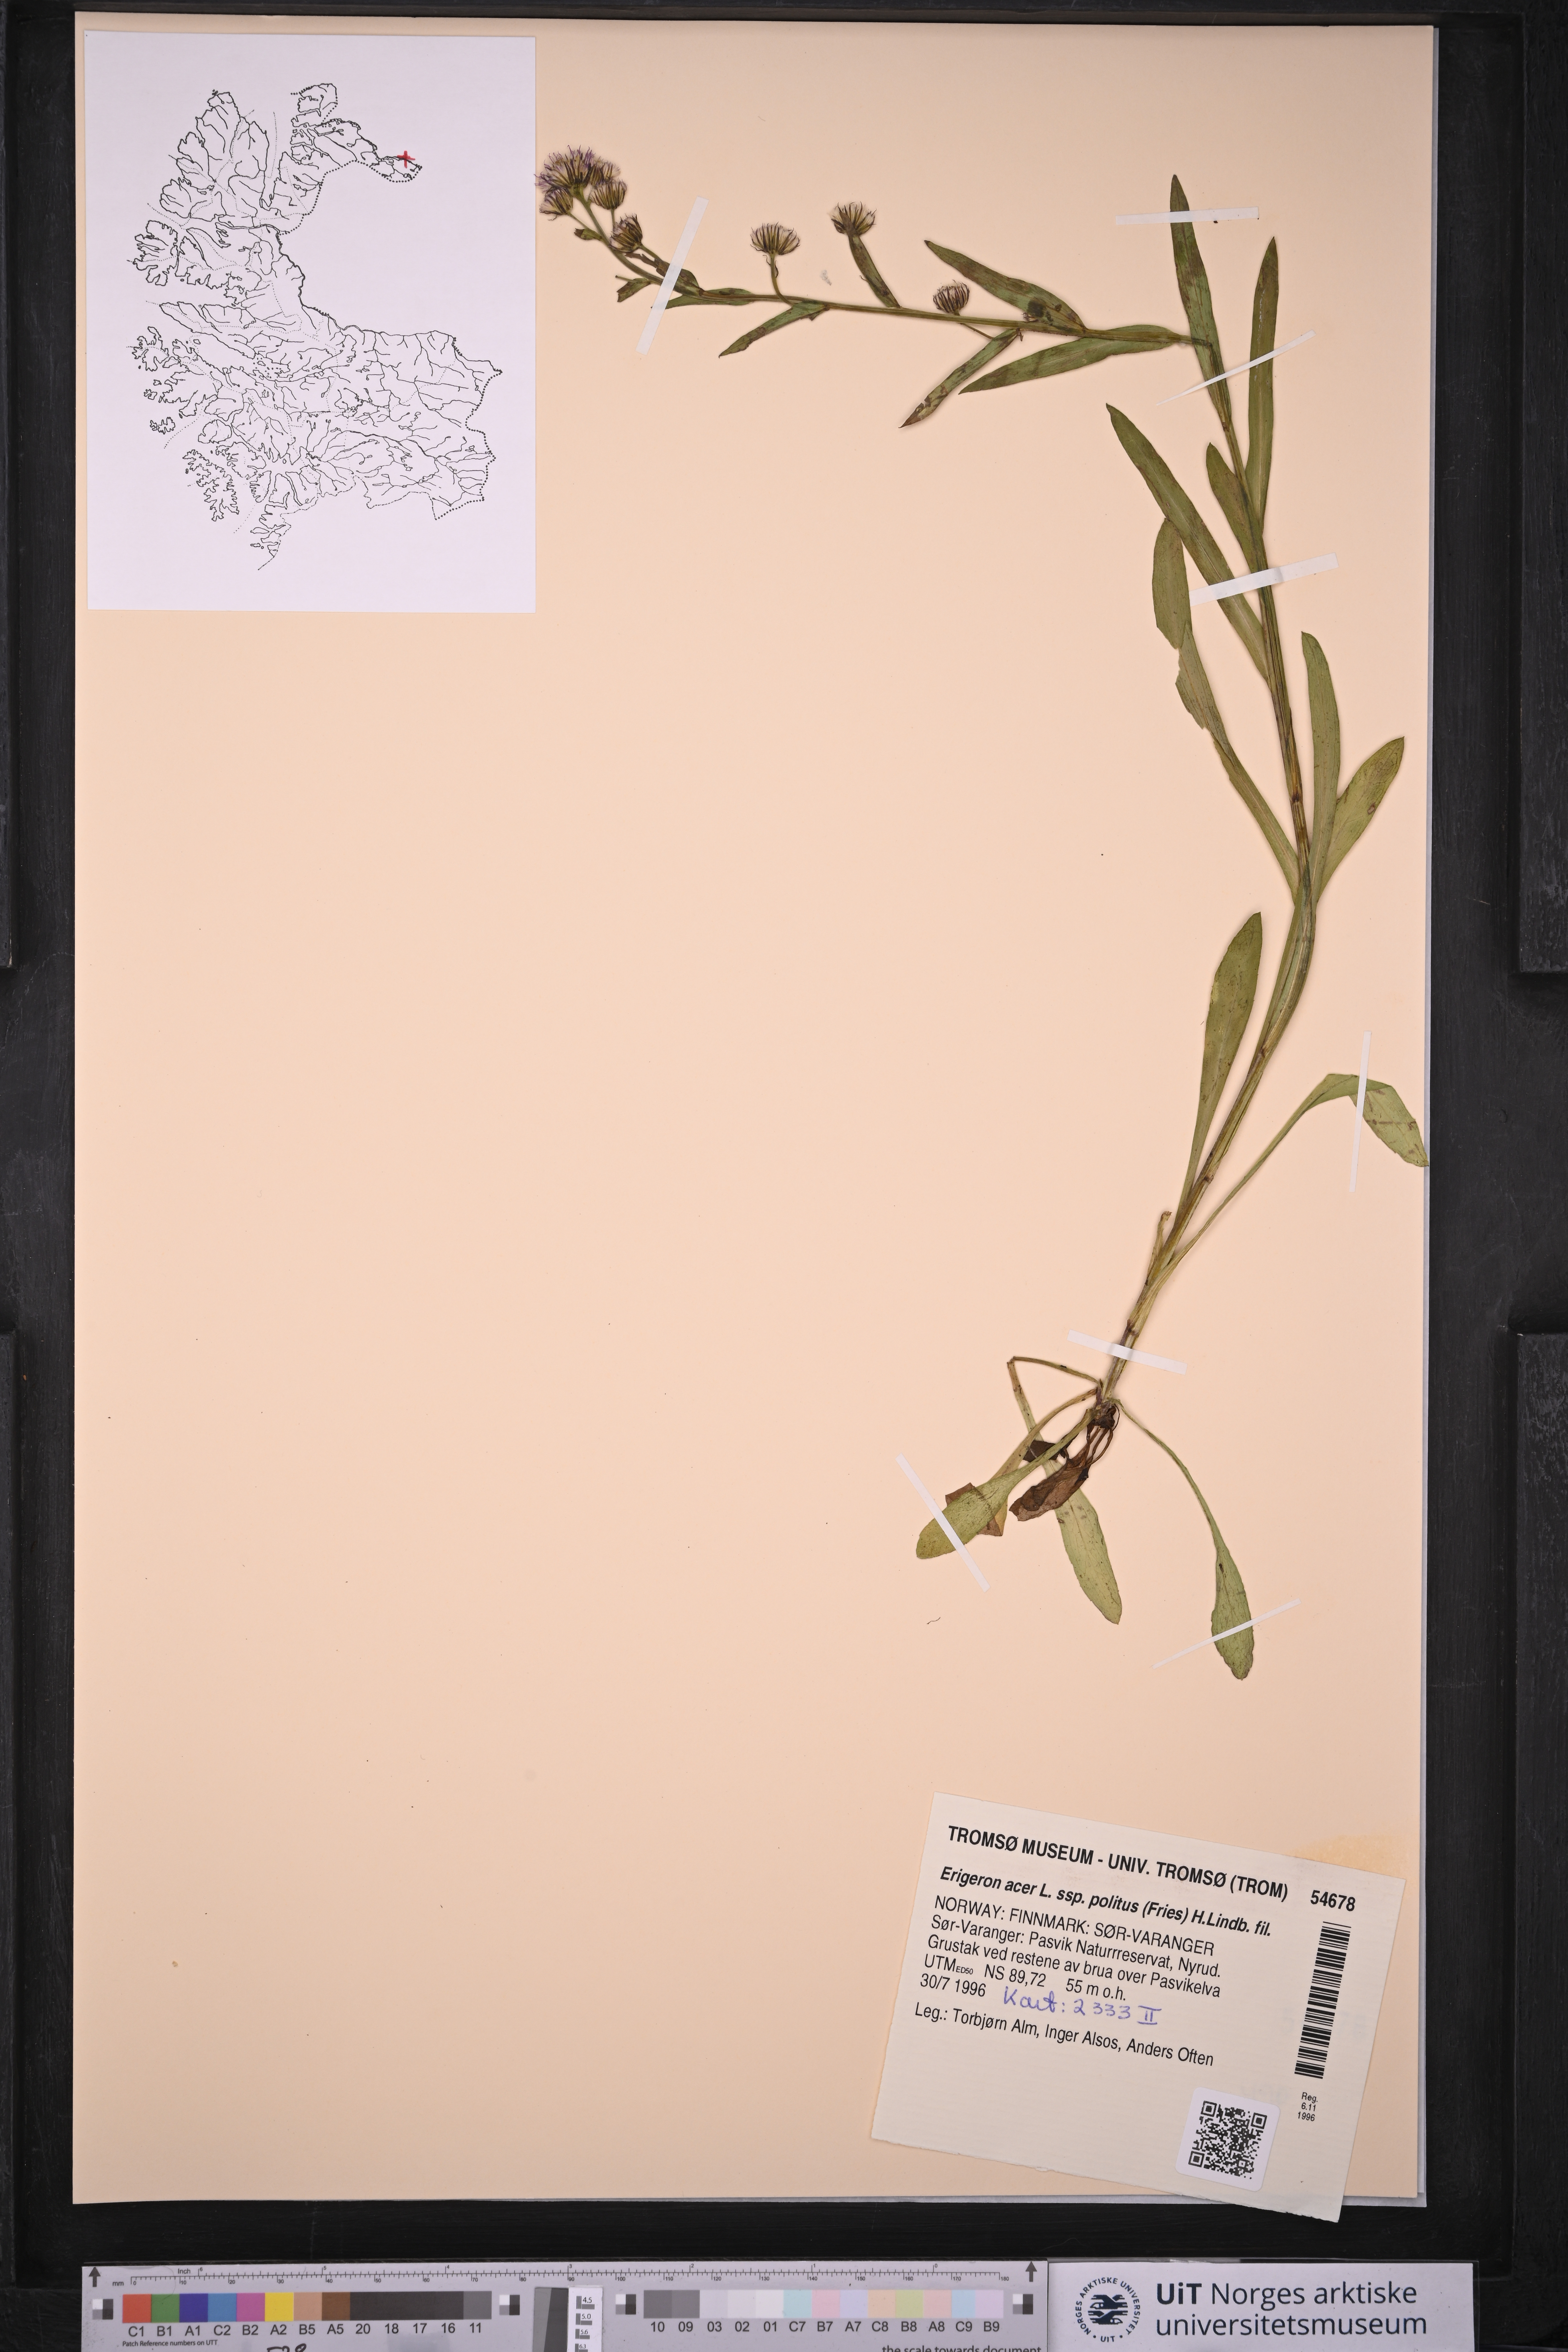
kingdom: Plantae
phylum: Tracheophyta
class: Magnoliopsida
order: Asterales
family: Asteraceae
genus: Erigeron
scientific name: Erigeron politus
